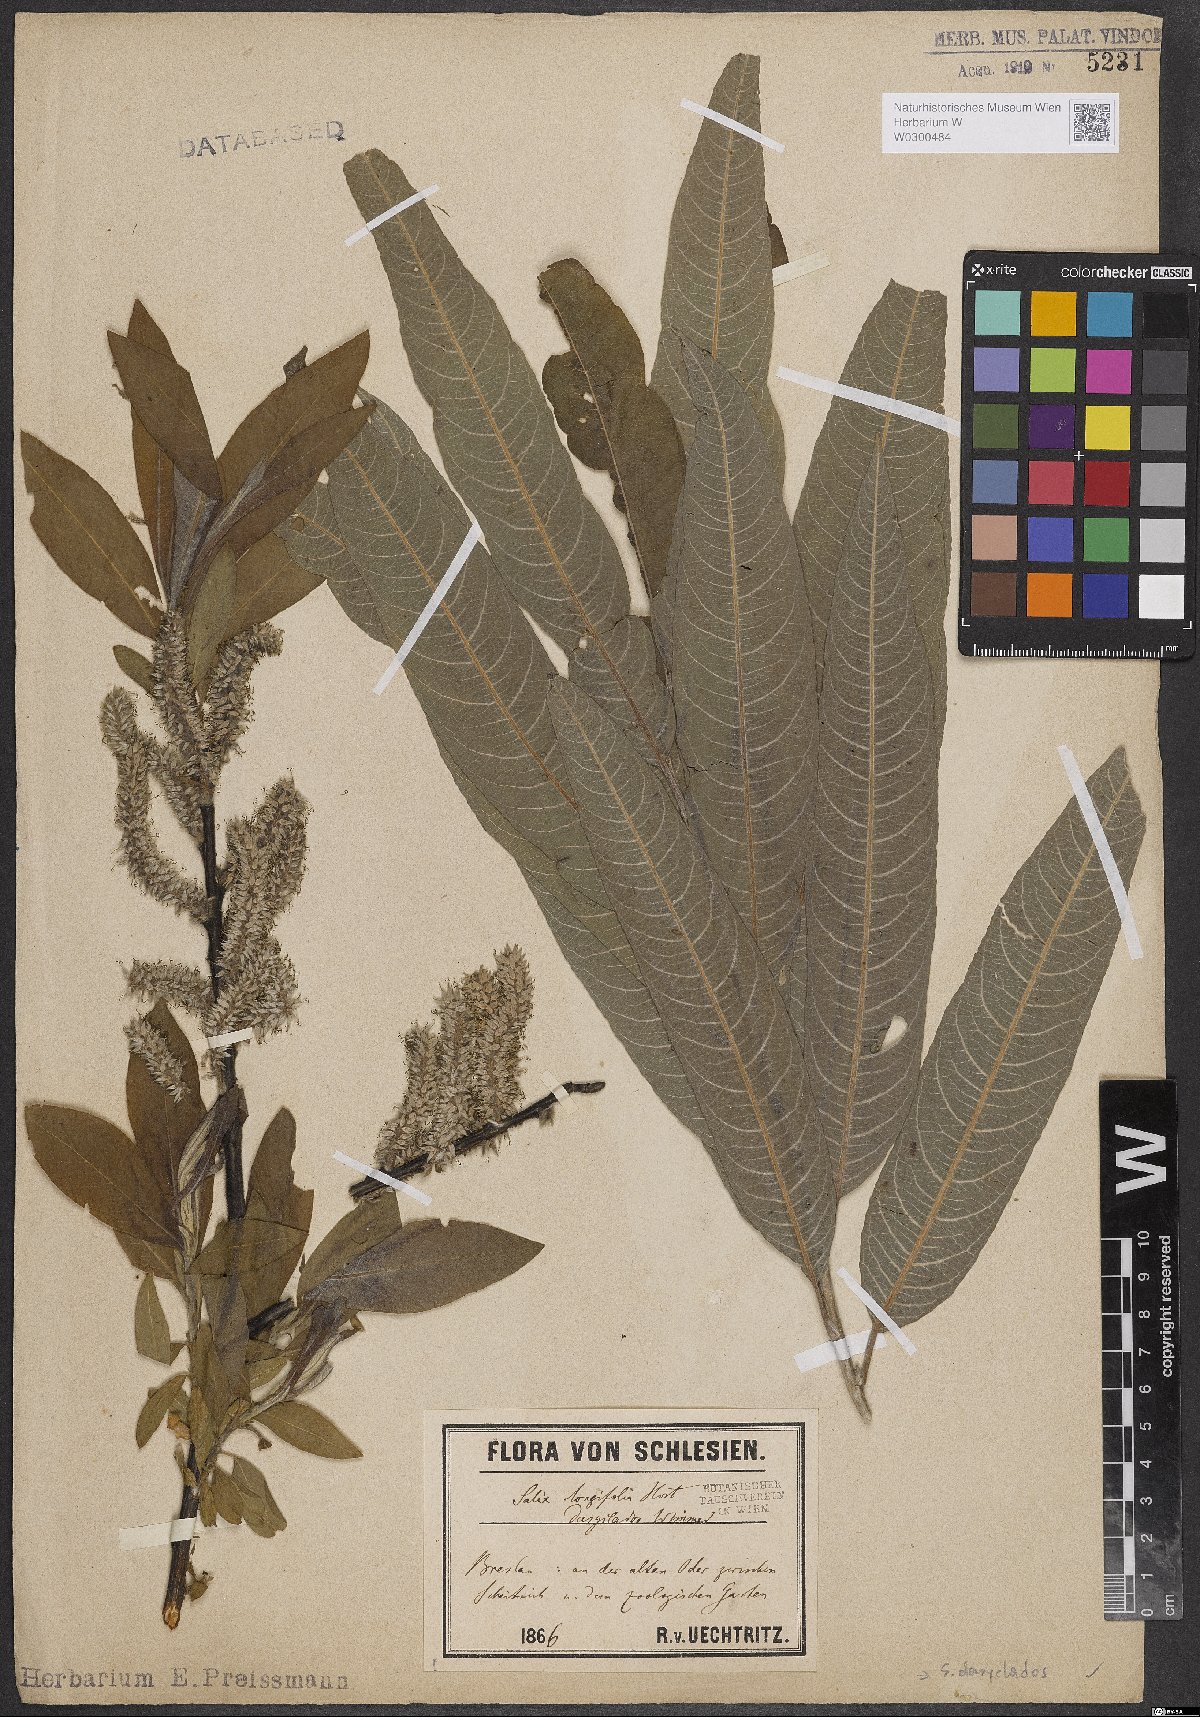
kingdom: Plantae
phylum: Tracheophyta
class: Magnoliopsida
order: Malpighiales
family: Salicaceae
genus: Salix
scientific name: Salix gmelinii
